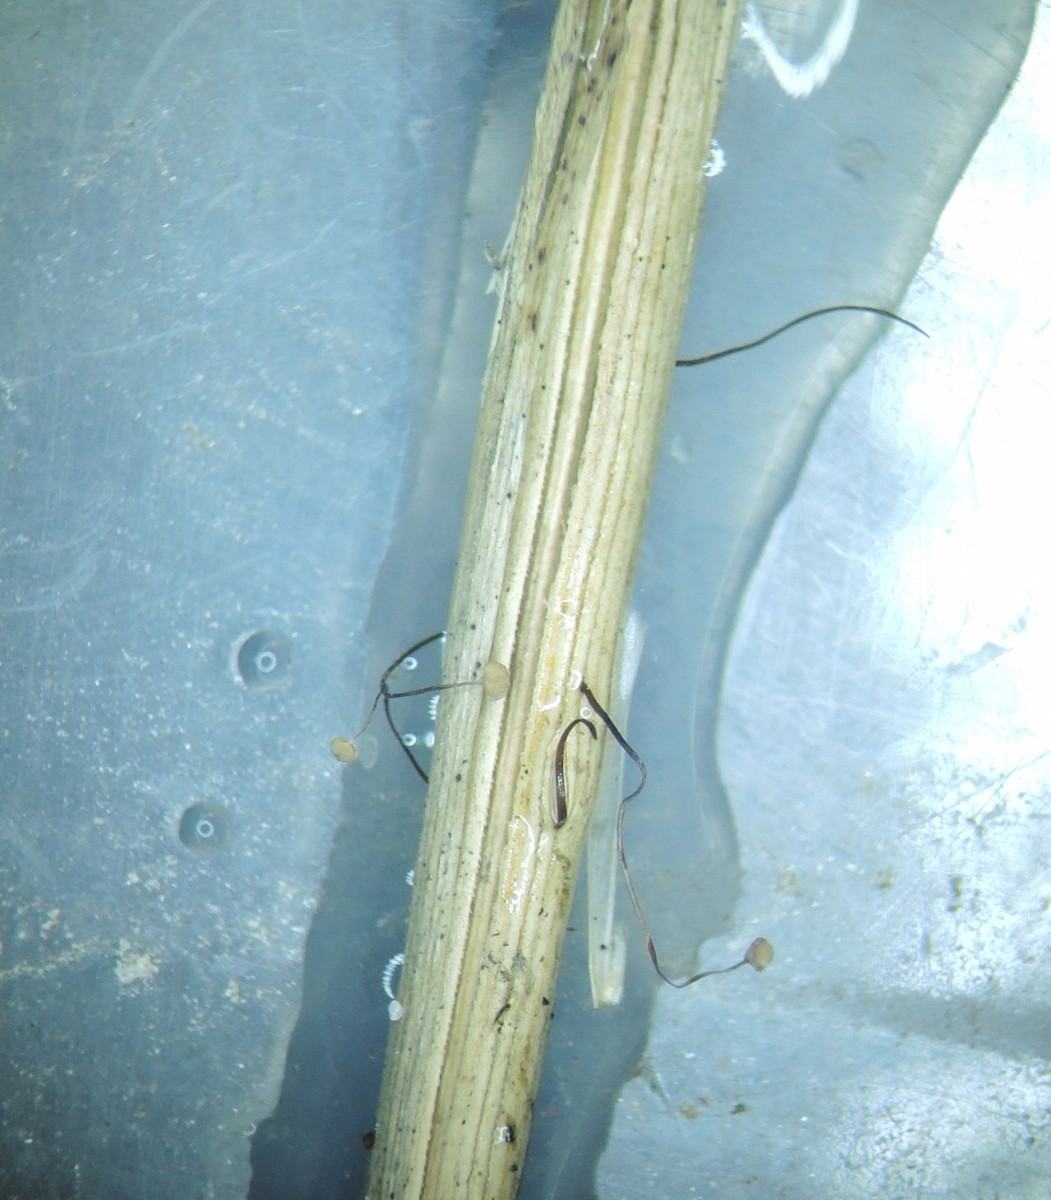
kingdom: Fungi
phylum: Basidiomycota
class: Agaricomycetes
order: Agaricales
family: Marasmiaceae
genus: Marasmius
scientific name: Marasmius limosus
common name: kær-bruskhat
